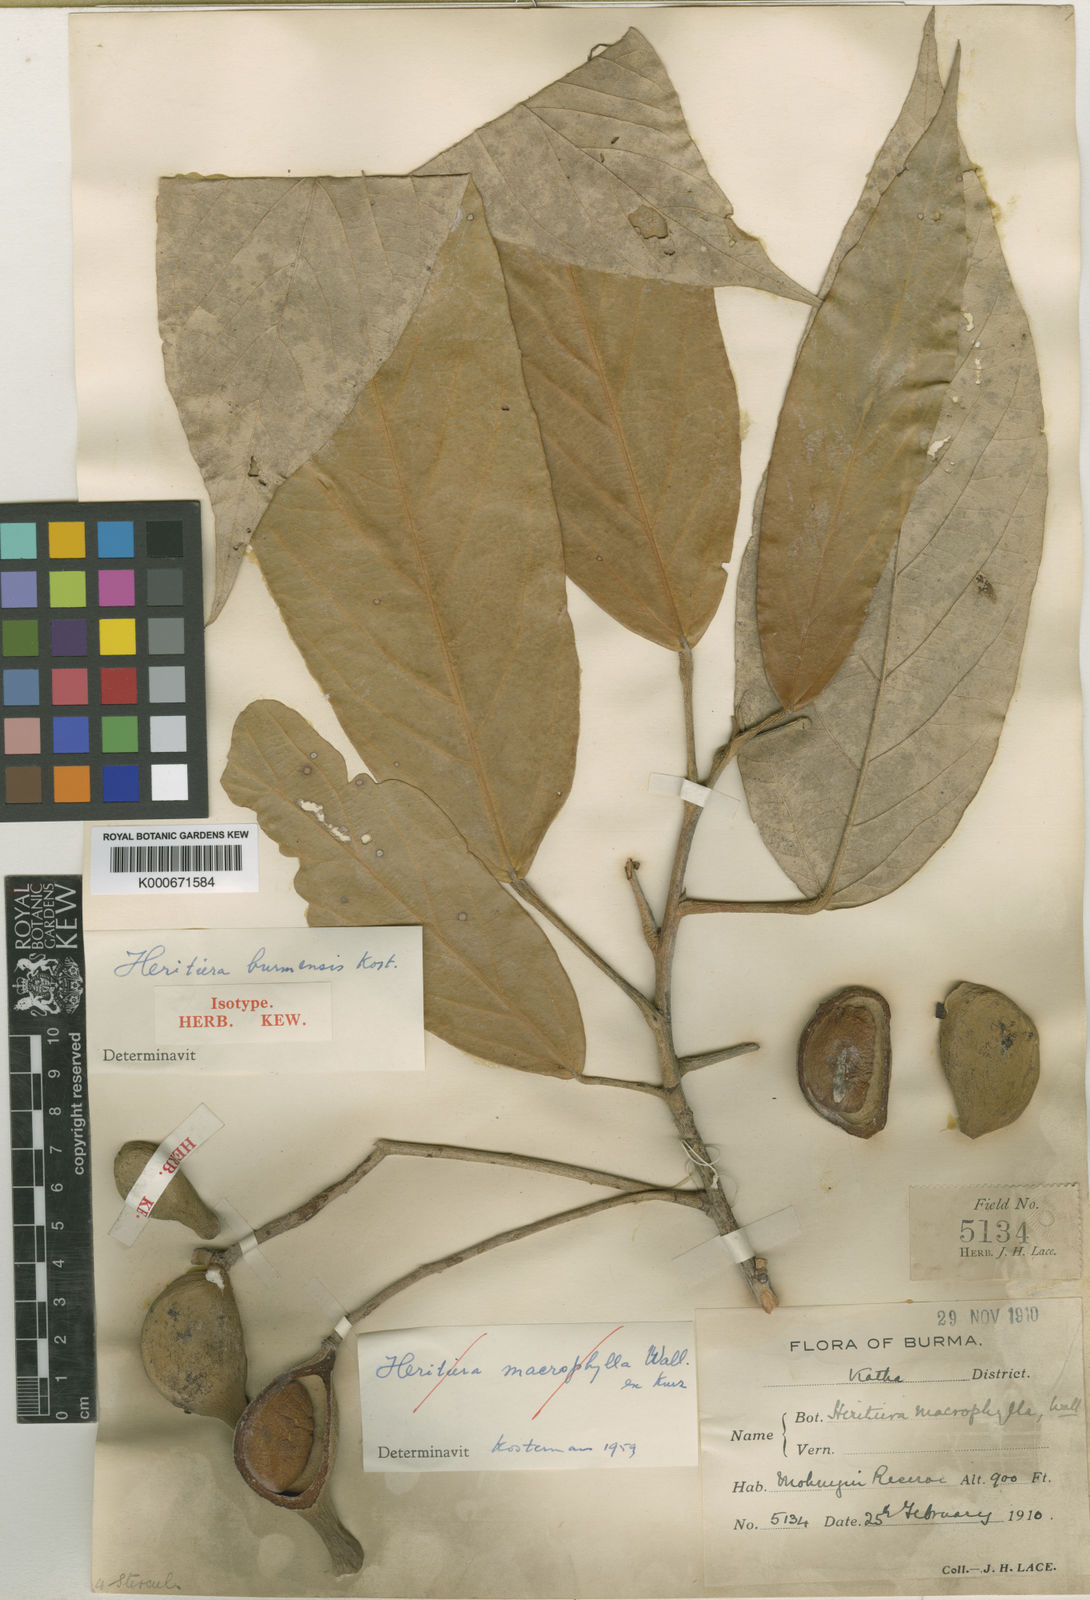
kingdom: Plantae
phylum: Tracheophyta
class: Magnoliopsida
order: Malvales
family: Malvaceae
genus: Heritiera
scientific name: Heritiera macrophylla
